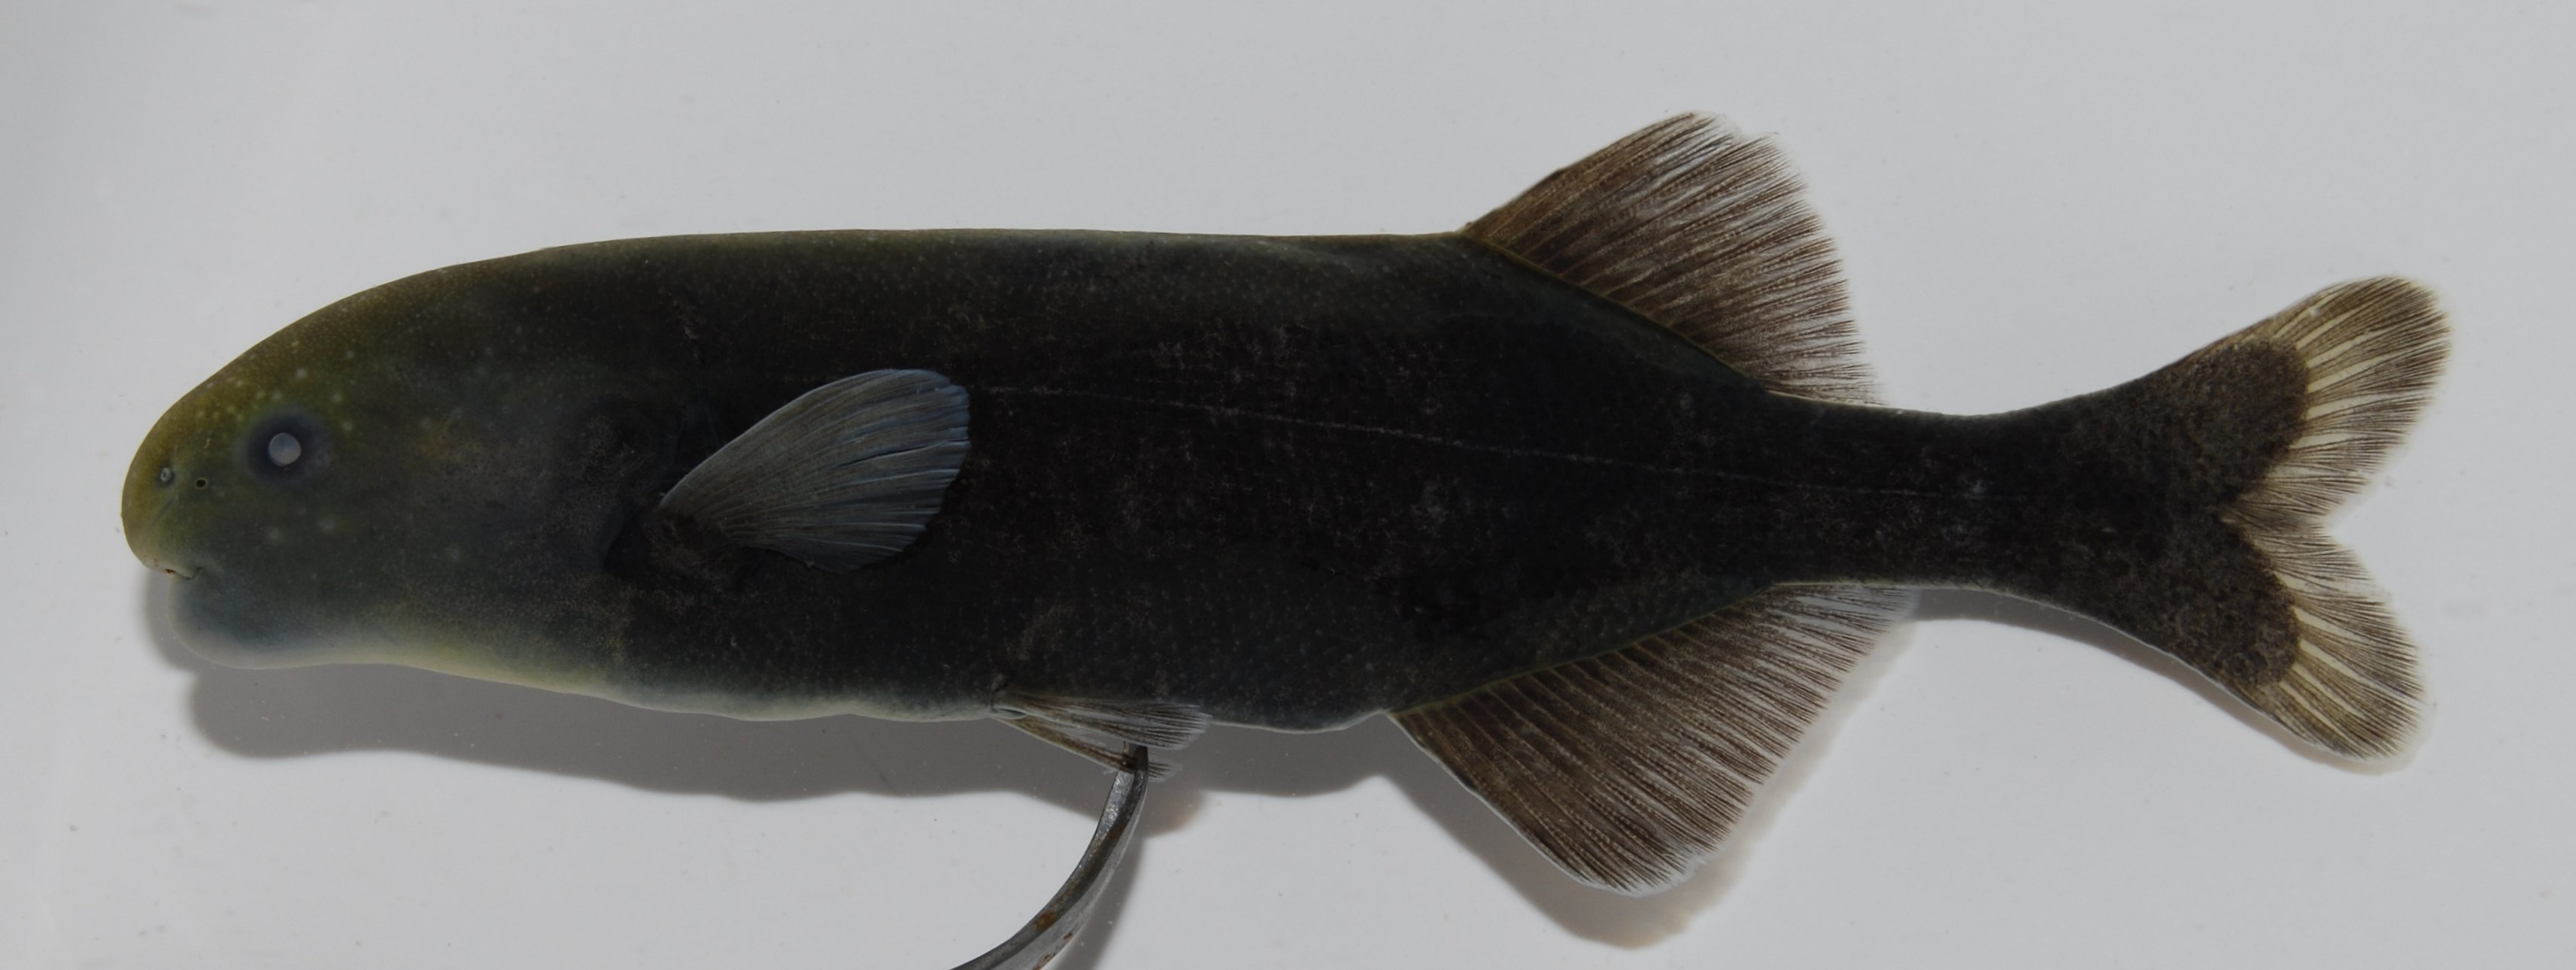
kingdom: Animalia
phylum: Chordata
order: Osteoglossiformes
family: Mormyridae
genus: Hippopotamyrus
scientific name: Hippopotamyrus ansorgii
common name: Slender stonebasher
